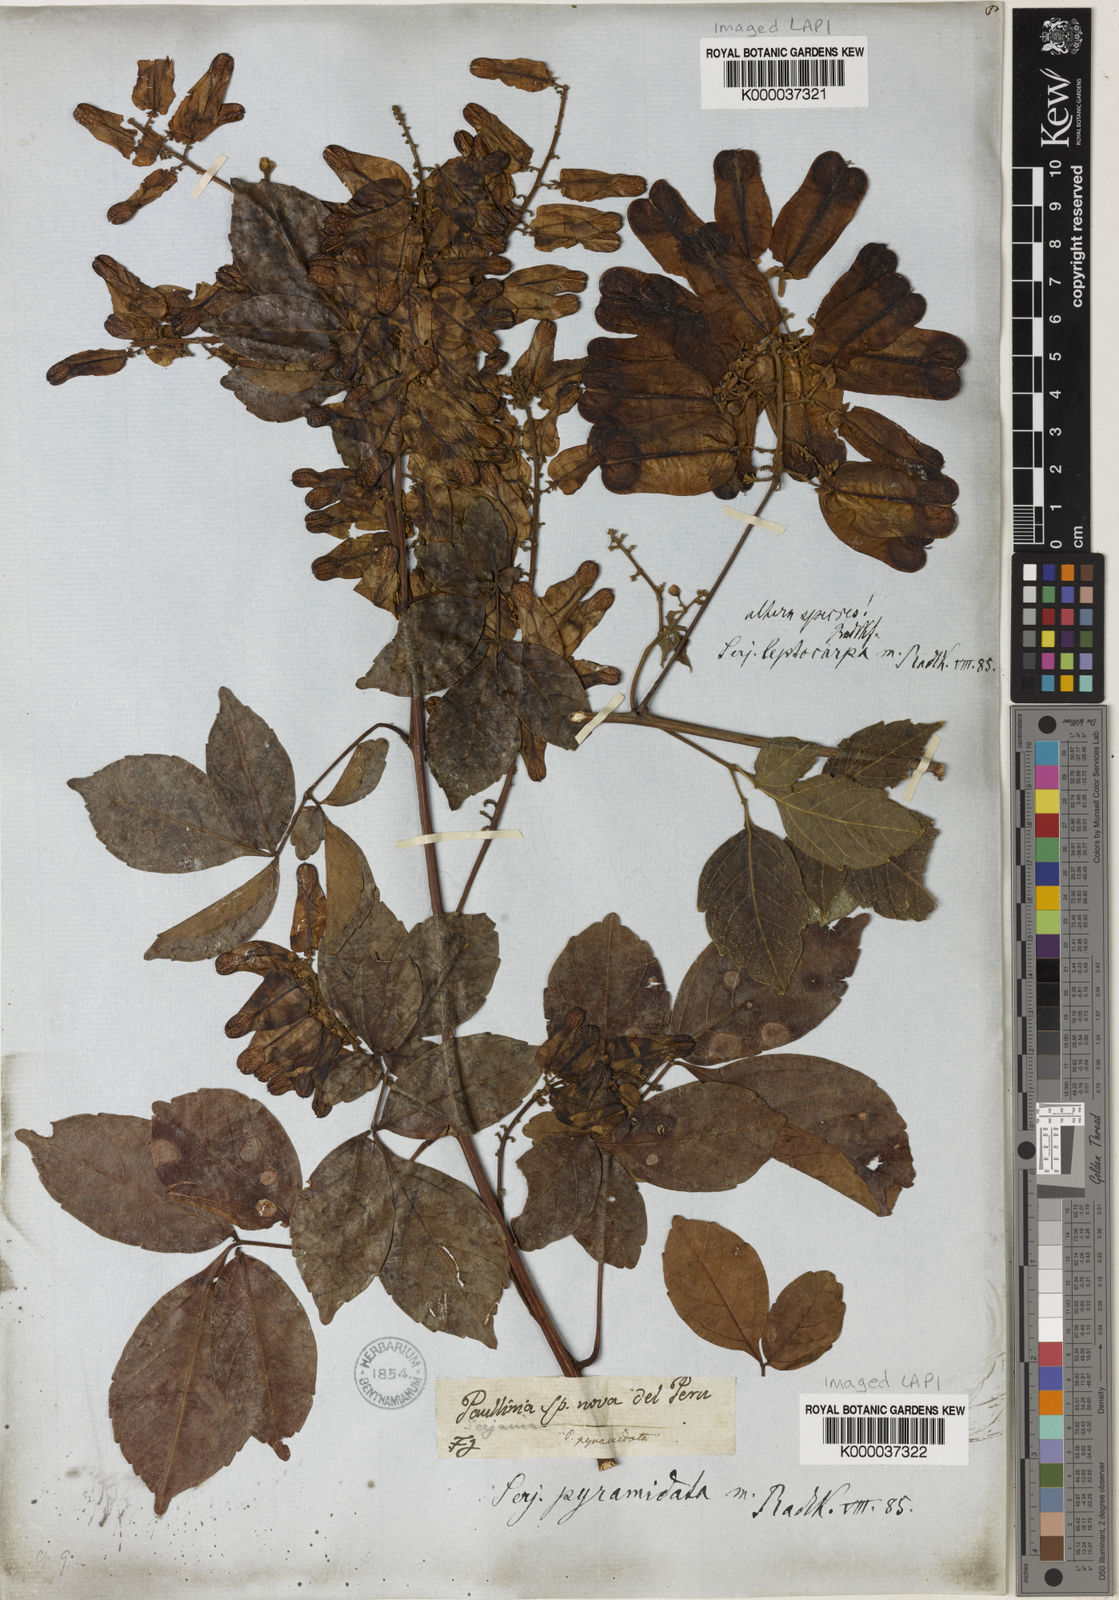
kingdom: Plantae
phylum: Tracheophyta
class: Magnoliopsida
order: Sapindales
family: Sapindaceae
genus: Serjania
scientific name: Serjania pyramidata
